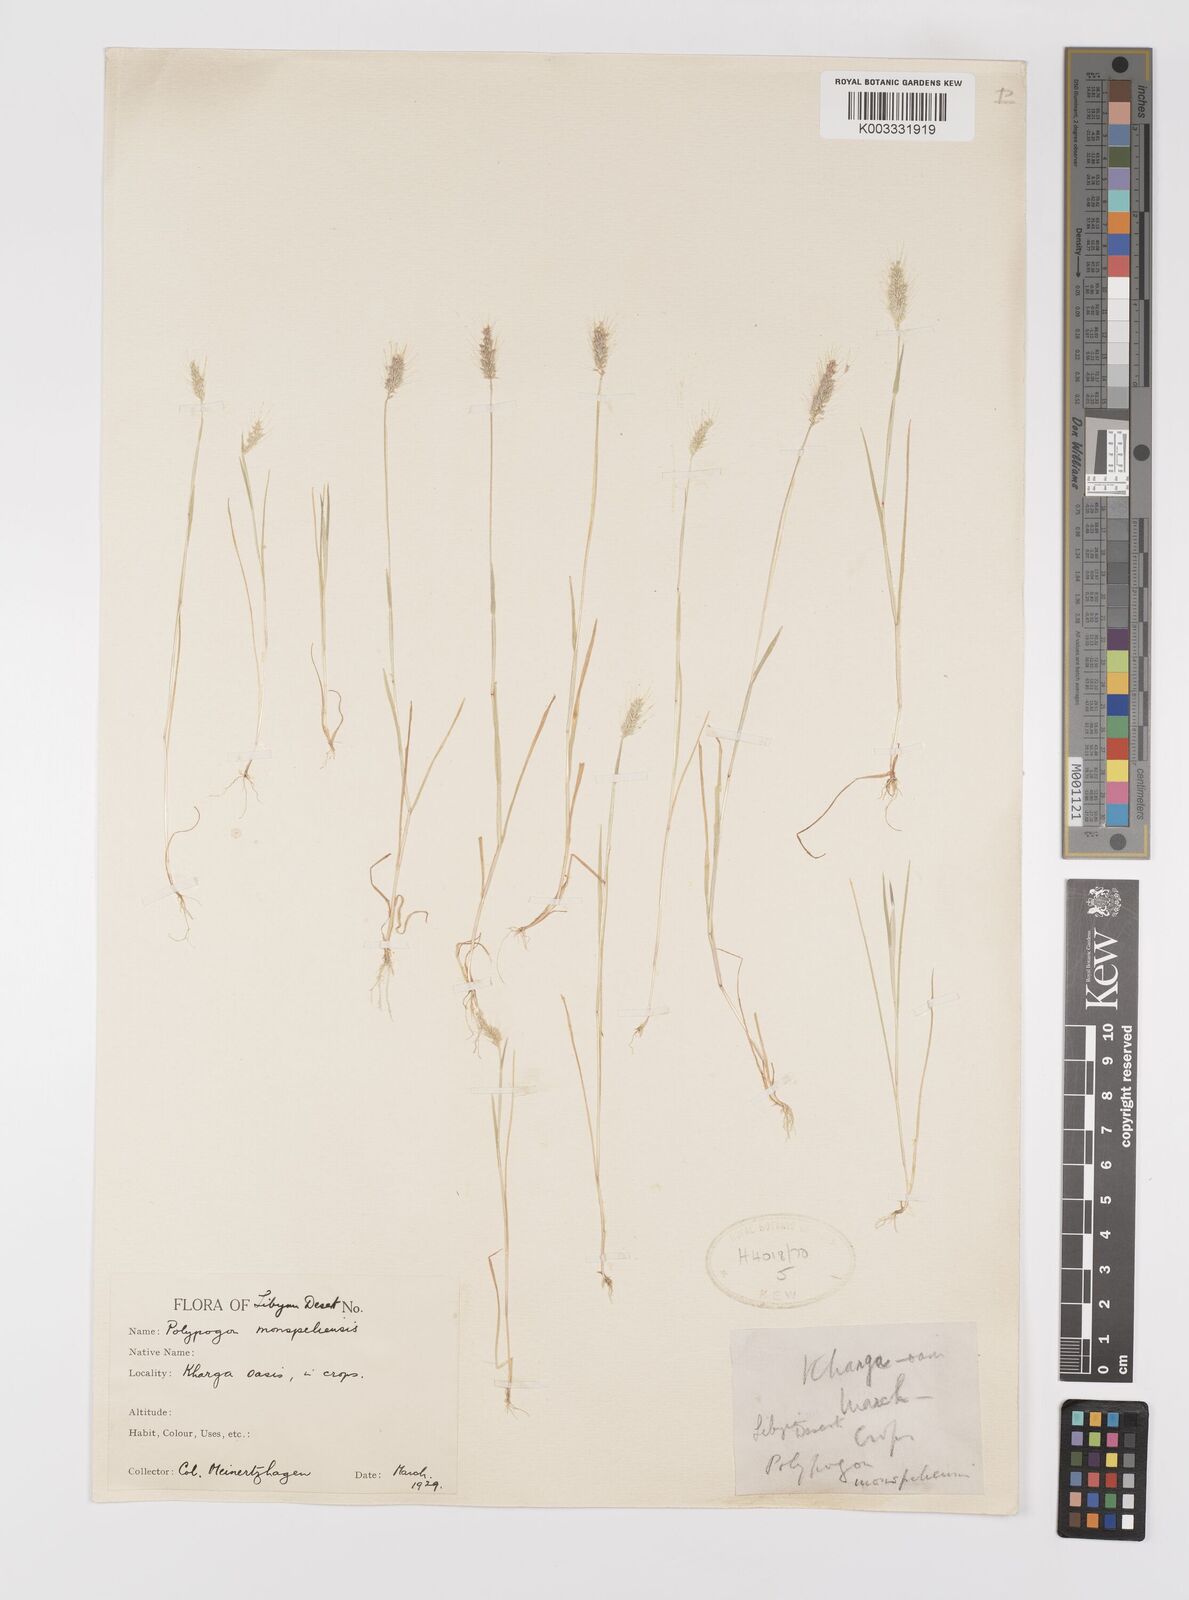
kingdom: Plantae
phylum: Tracheophyta
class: Liliopsida
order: Poales
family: Poaceae
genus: Polypogon
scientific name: Polypogon monspeliensis
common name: Annual rabbitsfoot grass
